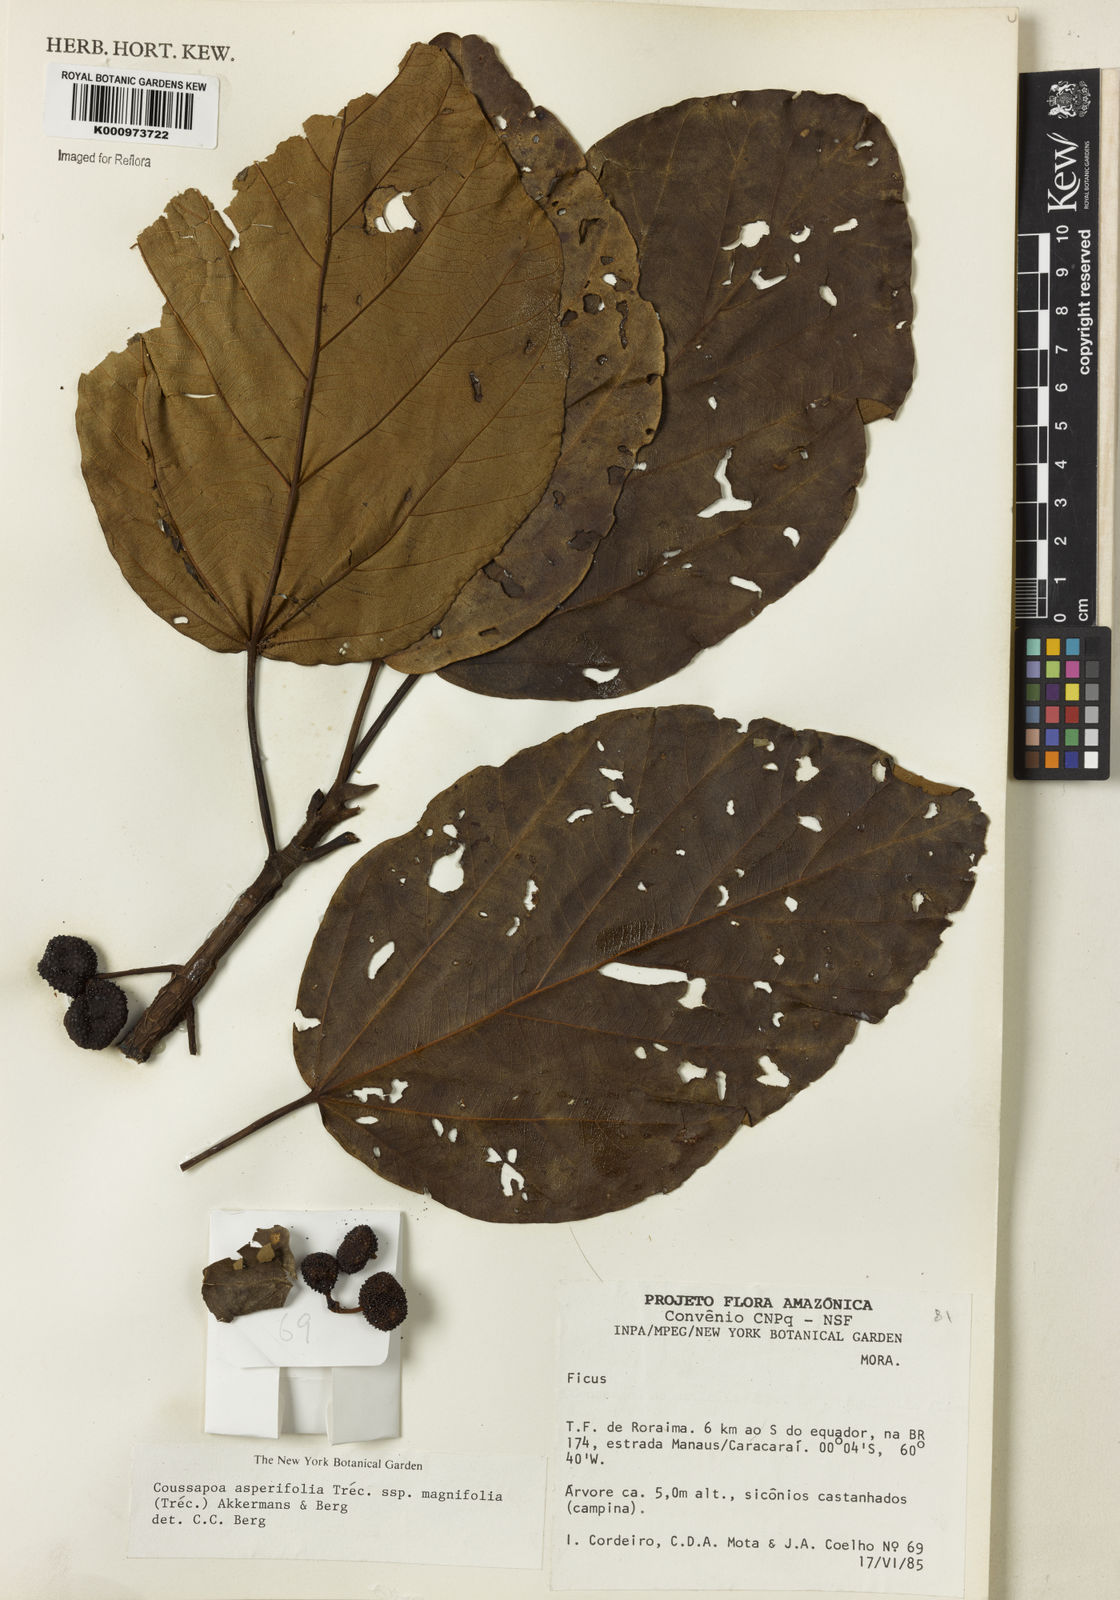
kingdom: Plantae
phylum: Tracheophyta
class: Magnoliopsida
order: Rosales
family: Urticaceae
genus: Coussapoa
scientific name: Coussapoa
